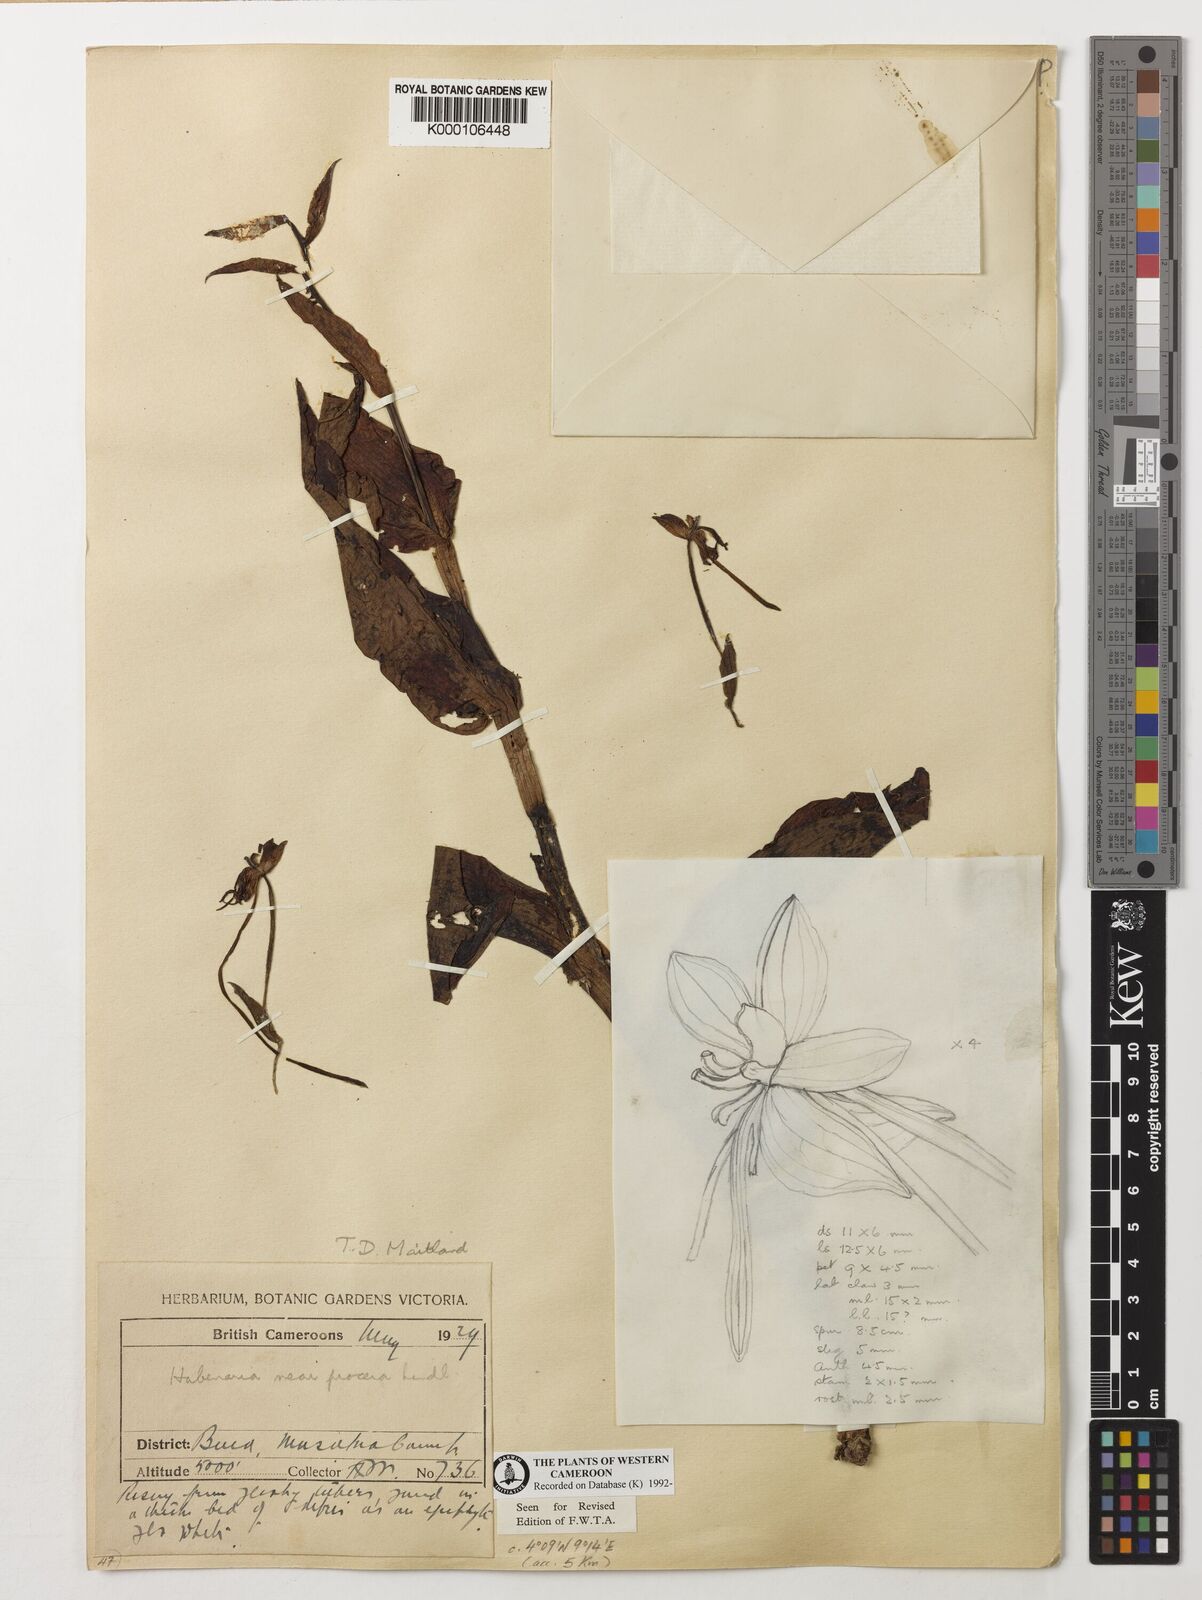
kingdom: Plantae
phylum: Tracheophyta
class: Liliopsida
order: Asparagales
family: Orchidaceae
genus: Habenaria
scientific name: Habenaria procera
